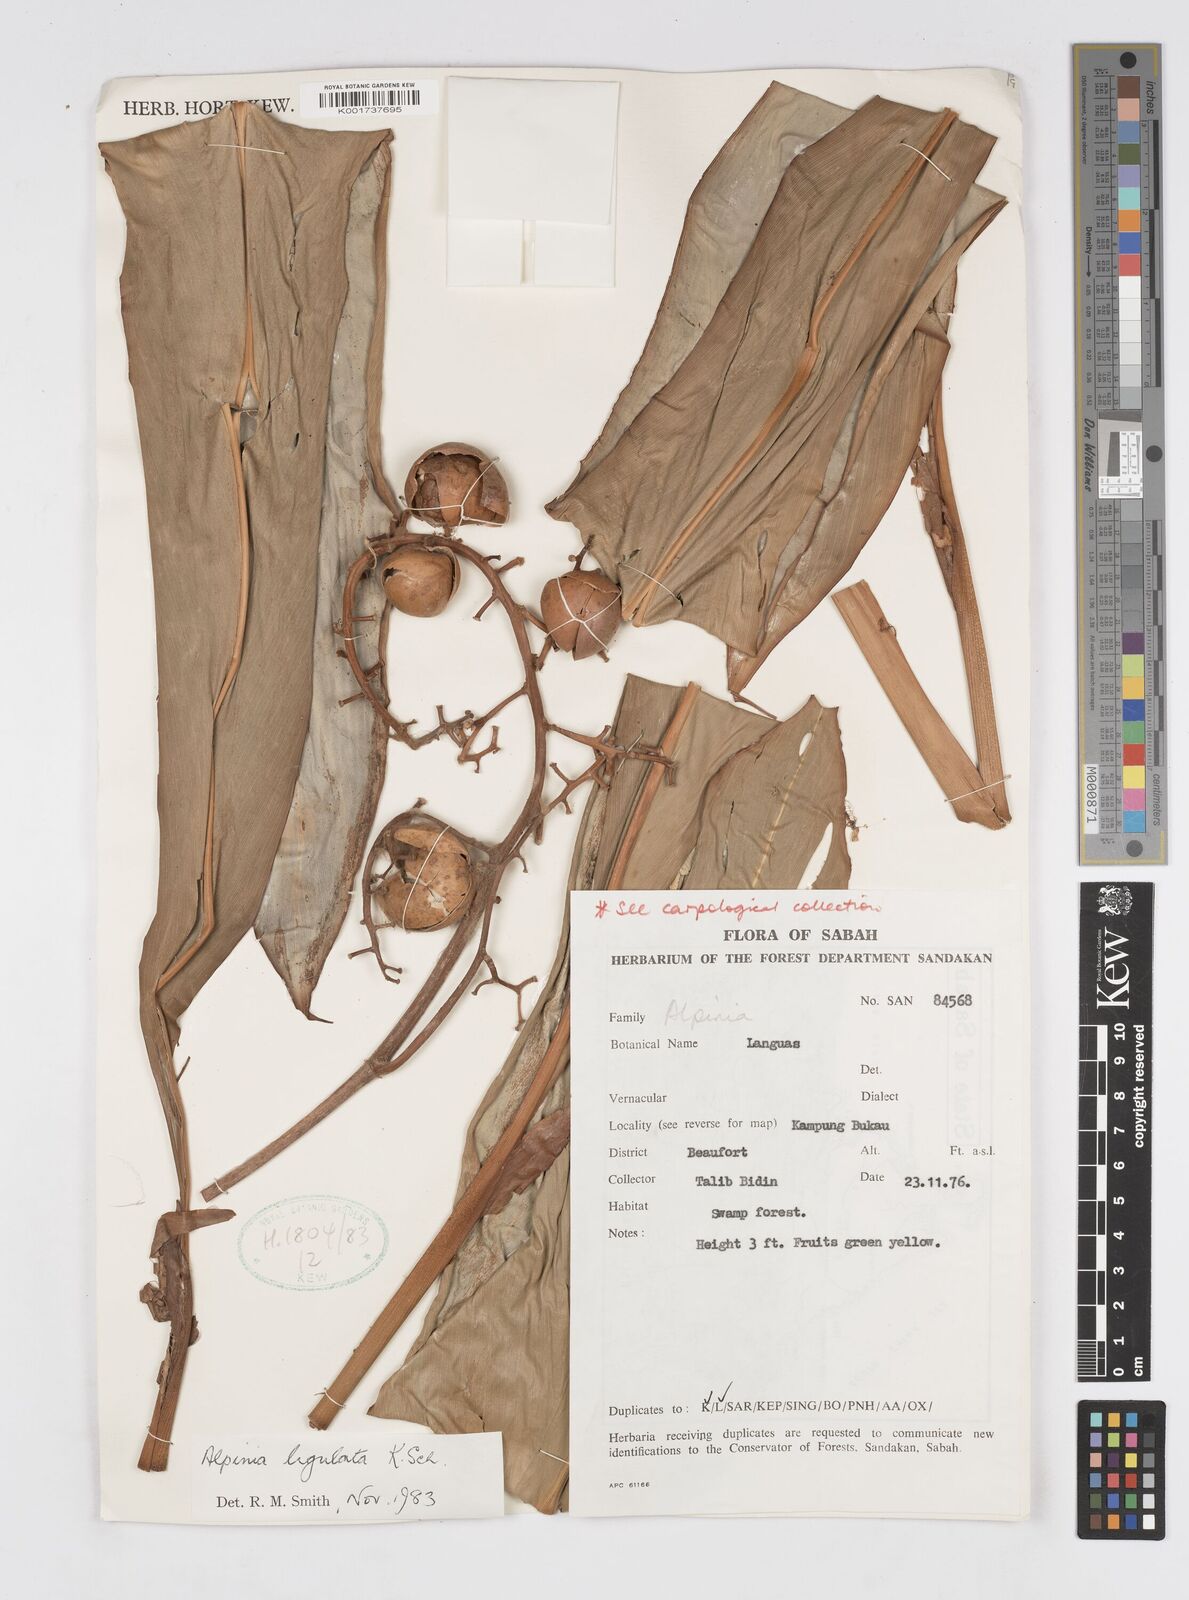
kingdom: Plantae
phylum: Tracheophyta
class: Liliopsida
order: Zingiberales
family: Zingiberaceae
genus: Alpinia
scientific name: Alpinia ligulata
